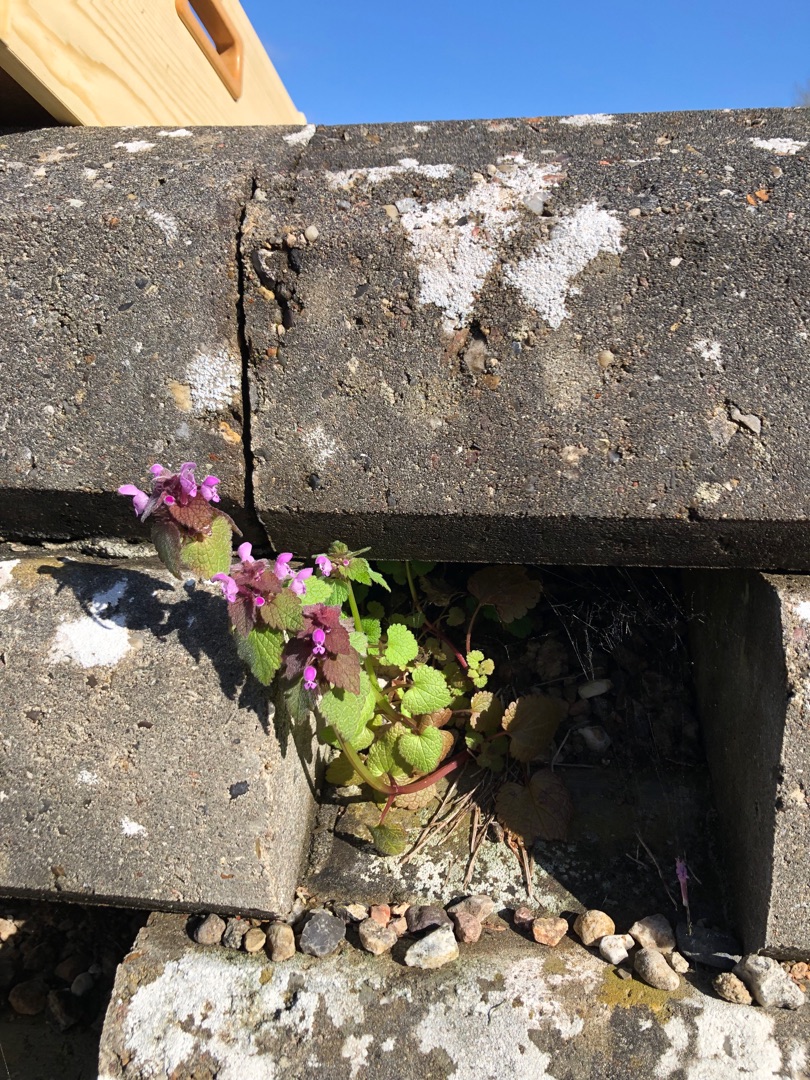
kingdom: Plantae
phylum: Tracheophyta
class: Magnoliopsida
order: Lamiales
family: Lamiaceae
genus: Lamium
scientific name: Lamium purpureum
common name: Rød tvetand
